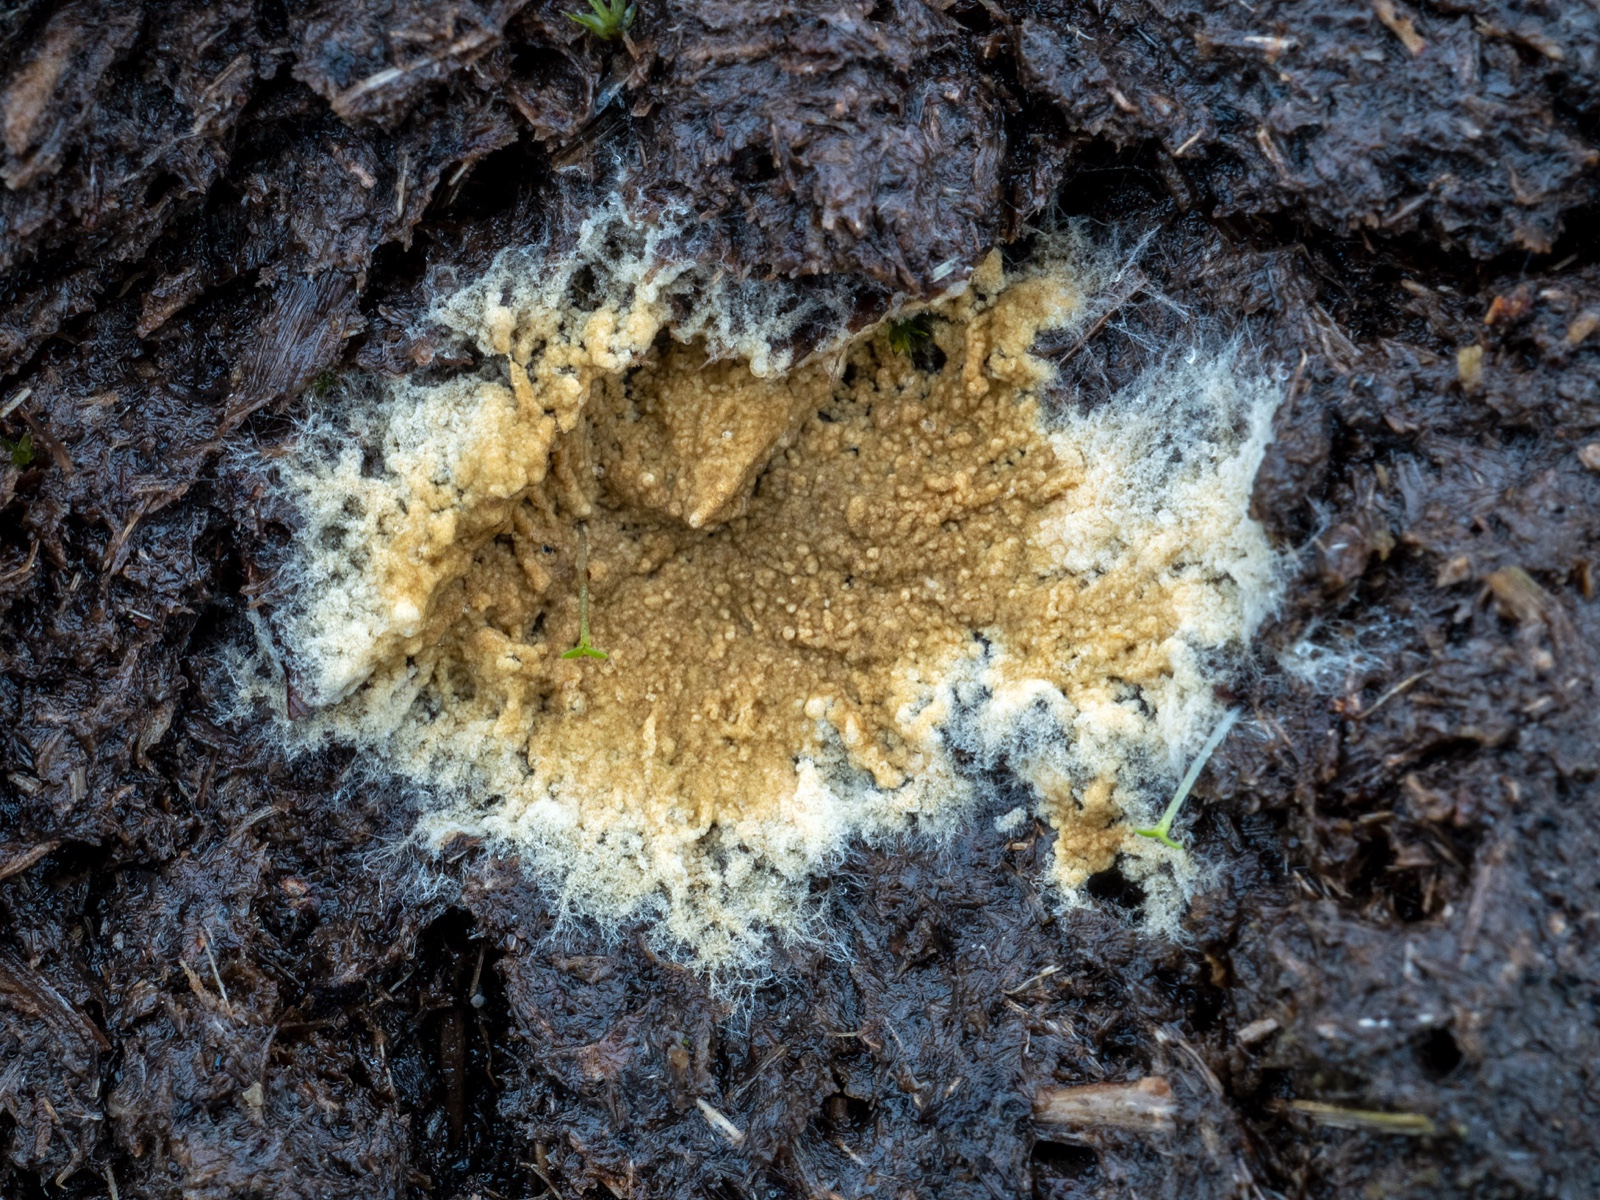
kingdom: Fungi
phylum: Basidiomycota
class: Agaricomycetes
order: Boletales
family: Coniophoraceae
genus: Coniophora
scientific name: Coniophora arida
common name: tynd tømmersvamp
